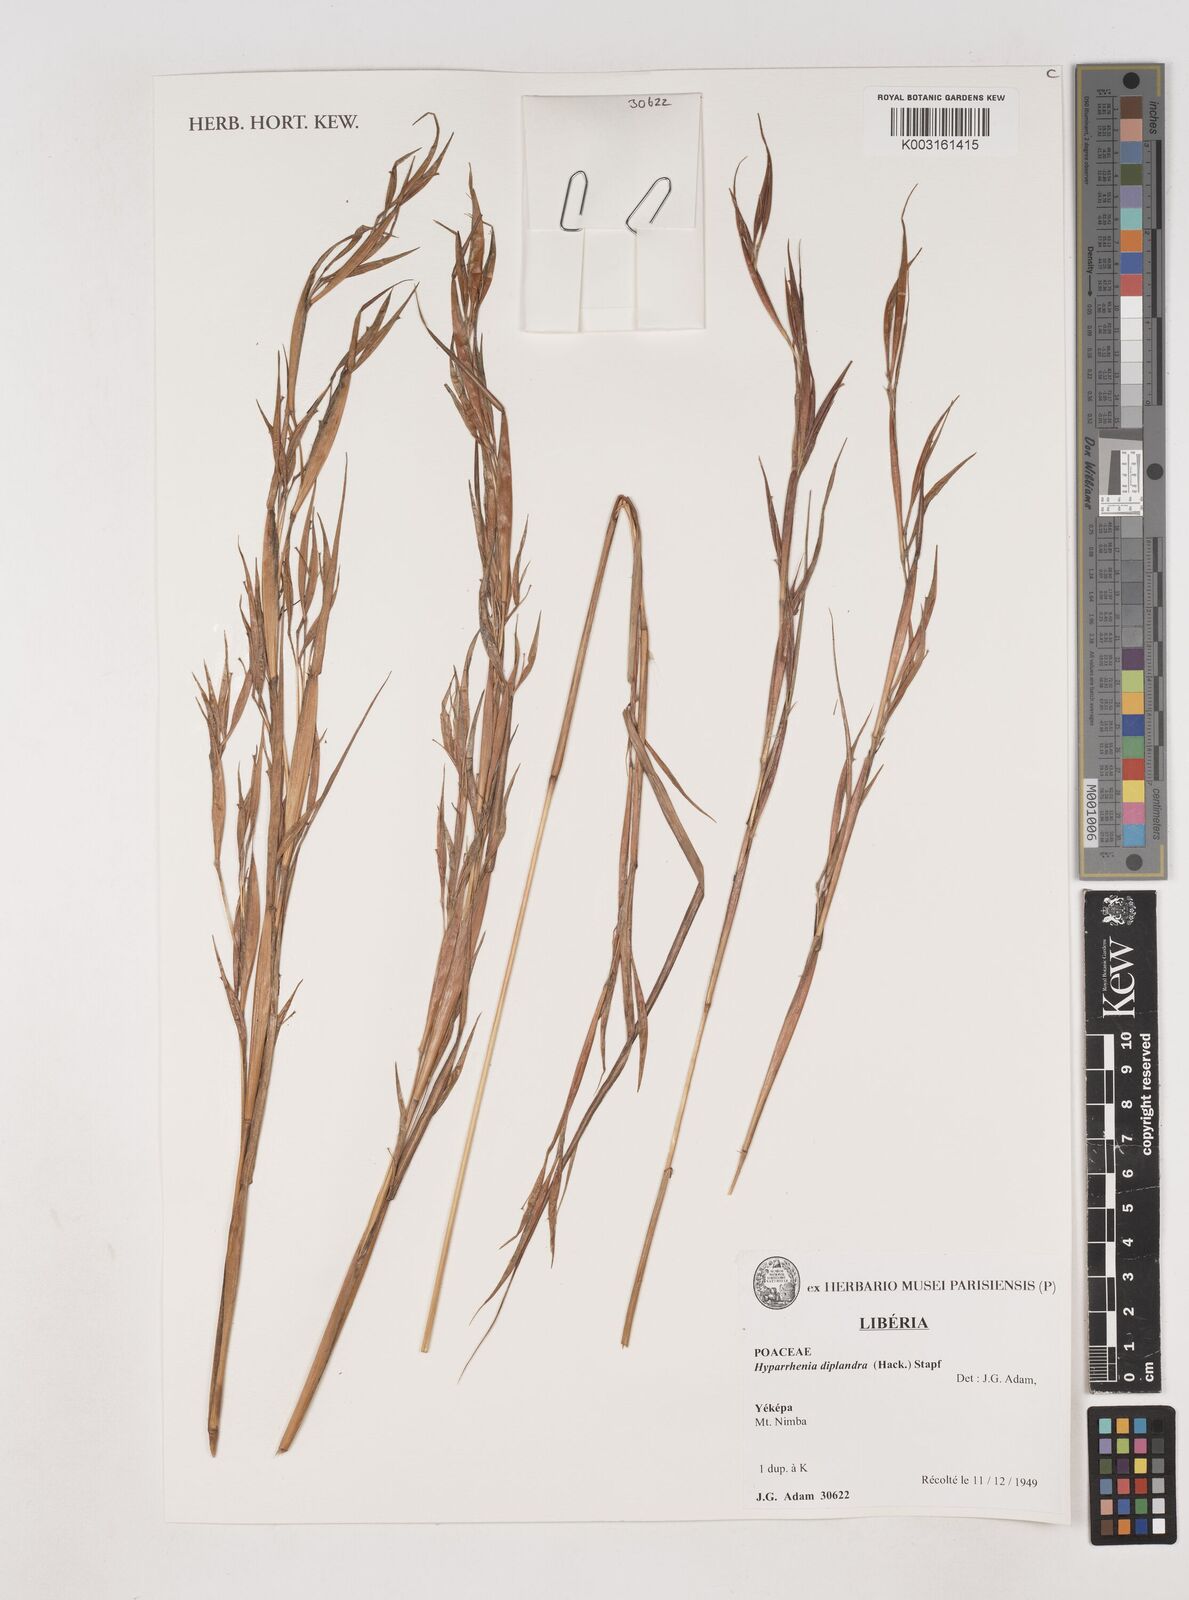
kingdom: Plantae
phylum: Tracheophyta
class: Liliopsida
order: Poales
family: Poaceae
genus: Hyparrhenia
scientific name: Hyparrhenia diplandra
